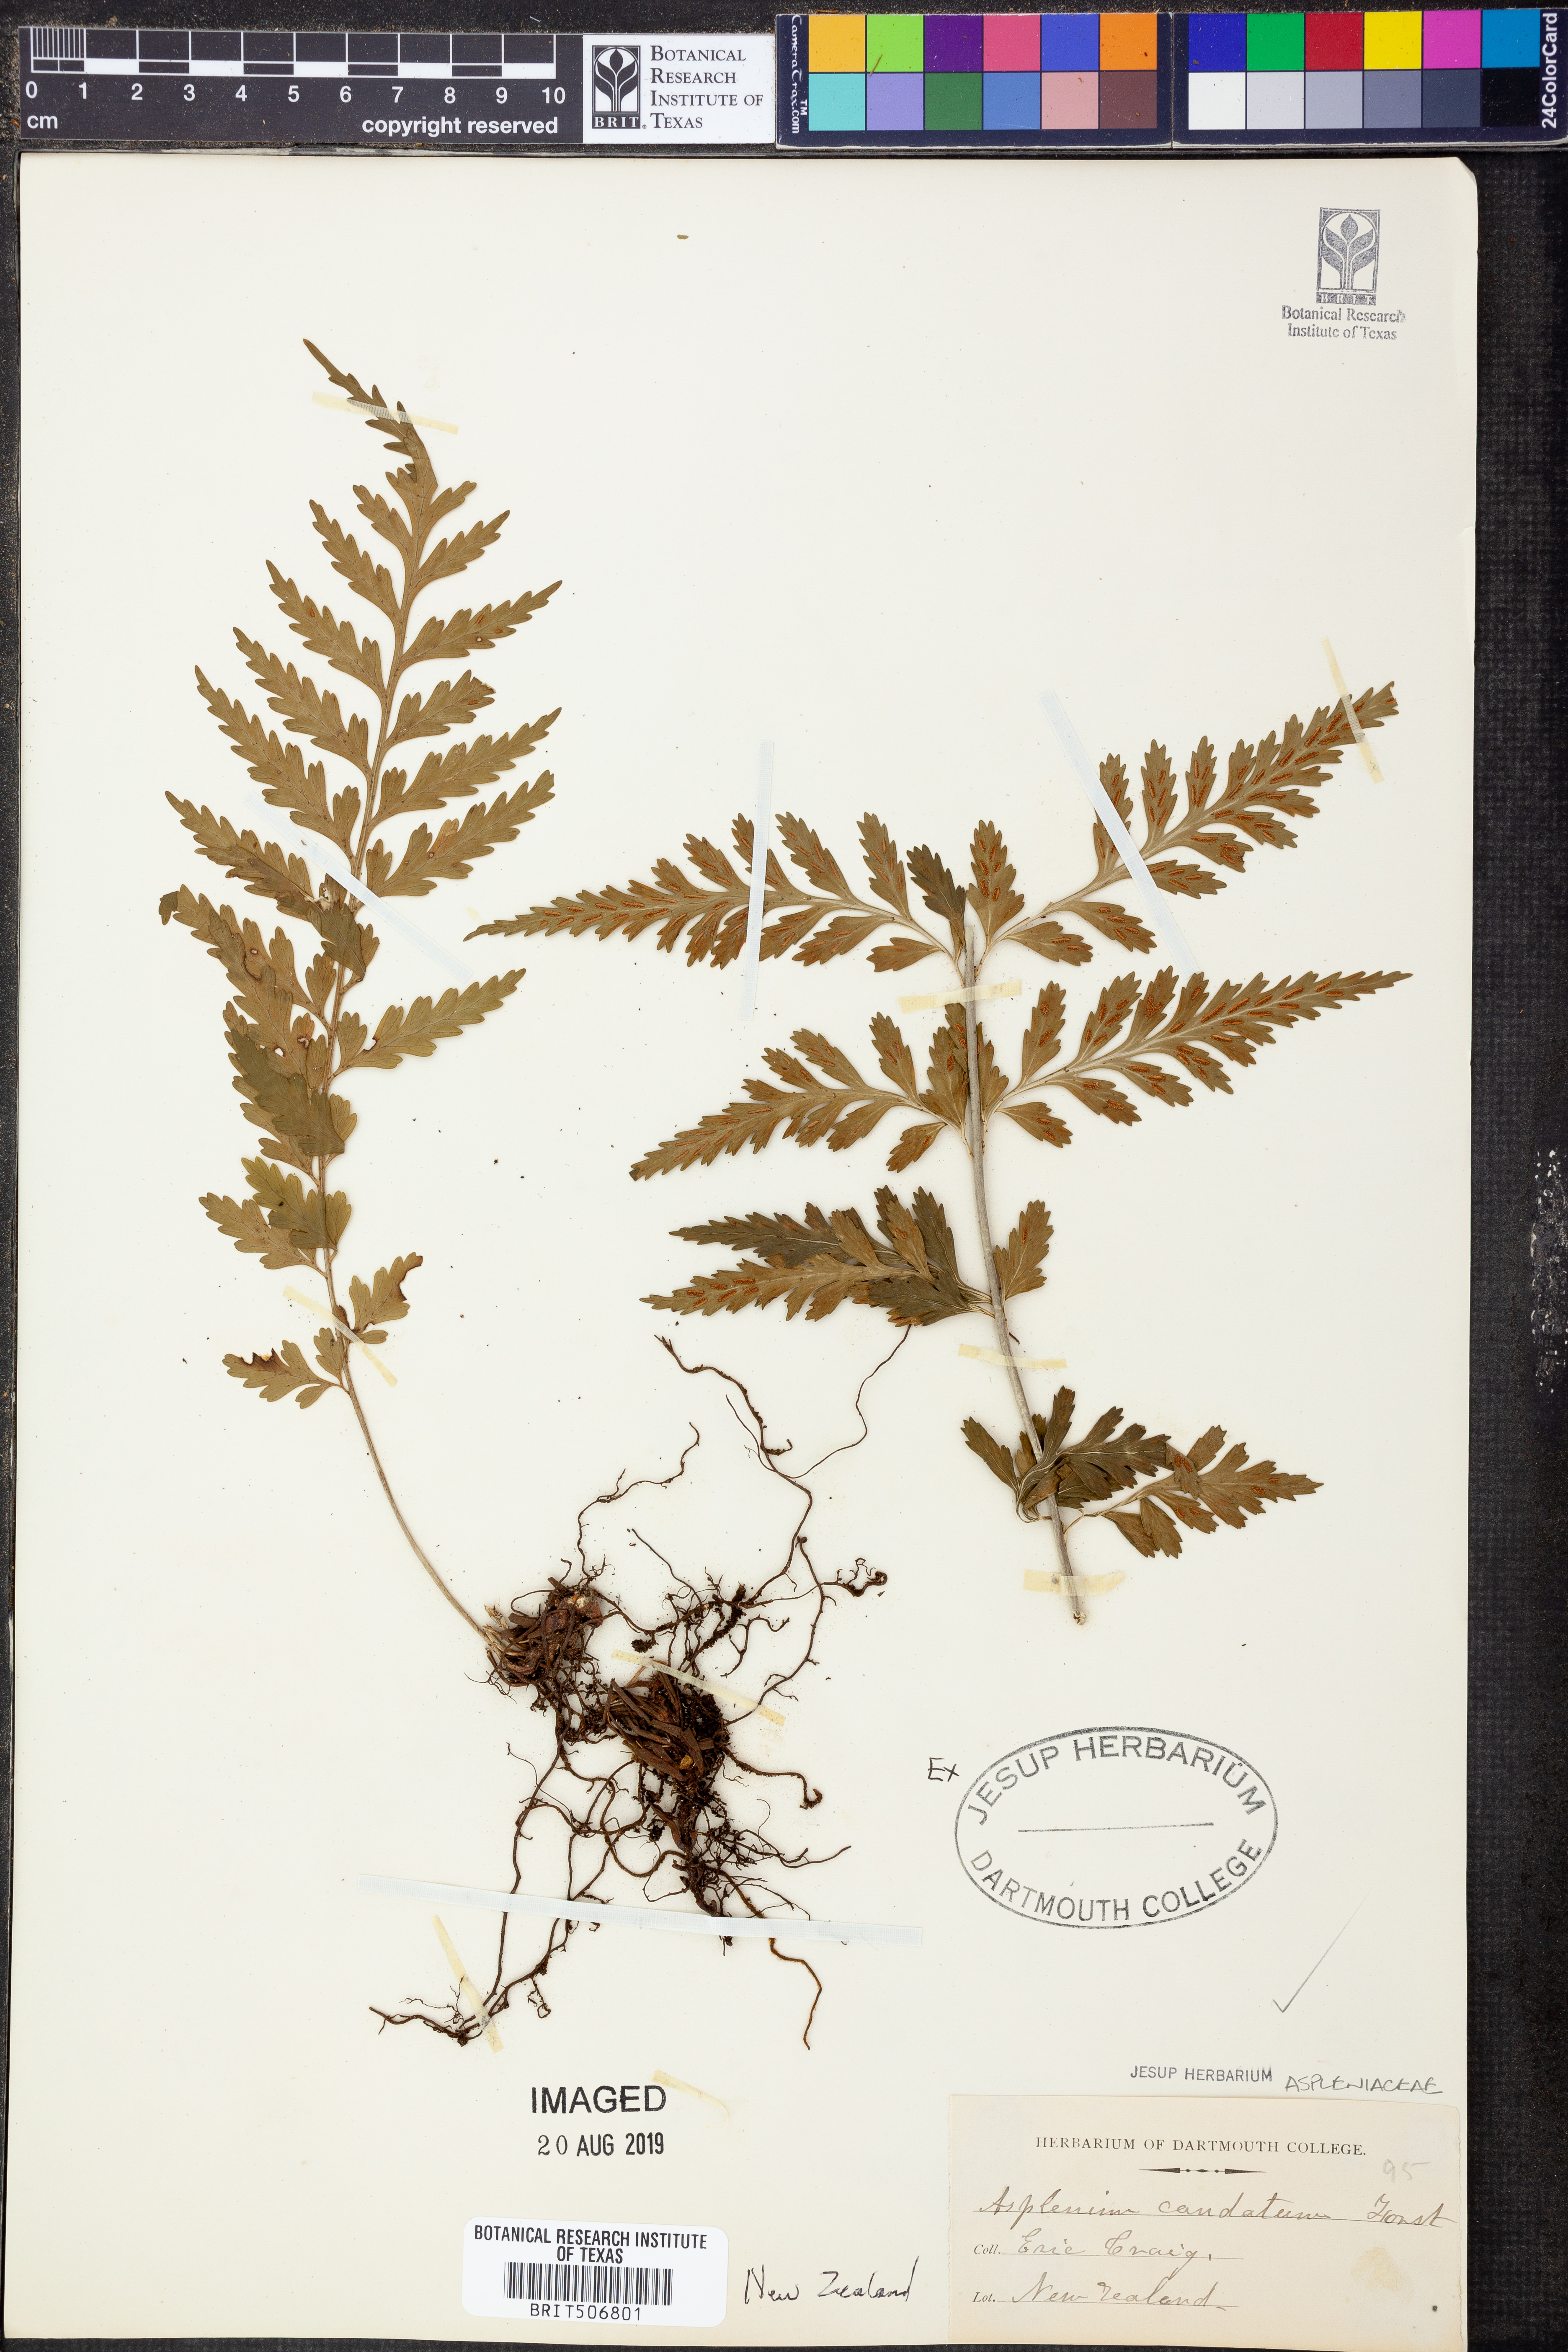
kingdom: Plantae
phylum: Tracheophyta
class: Polypodiopsida
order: Polypodiales
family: Aspleniaceae
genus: Asplenium
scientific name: Asplenium caudatum
